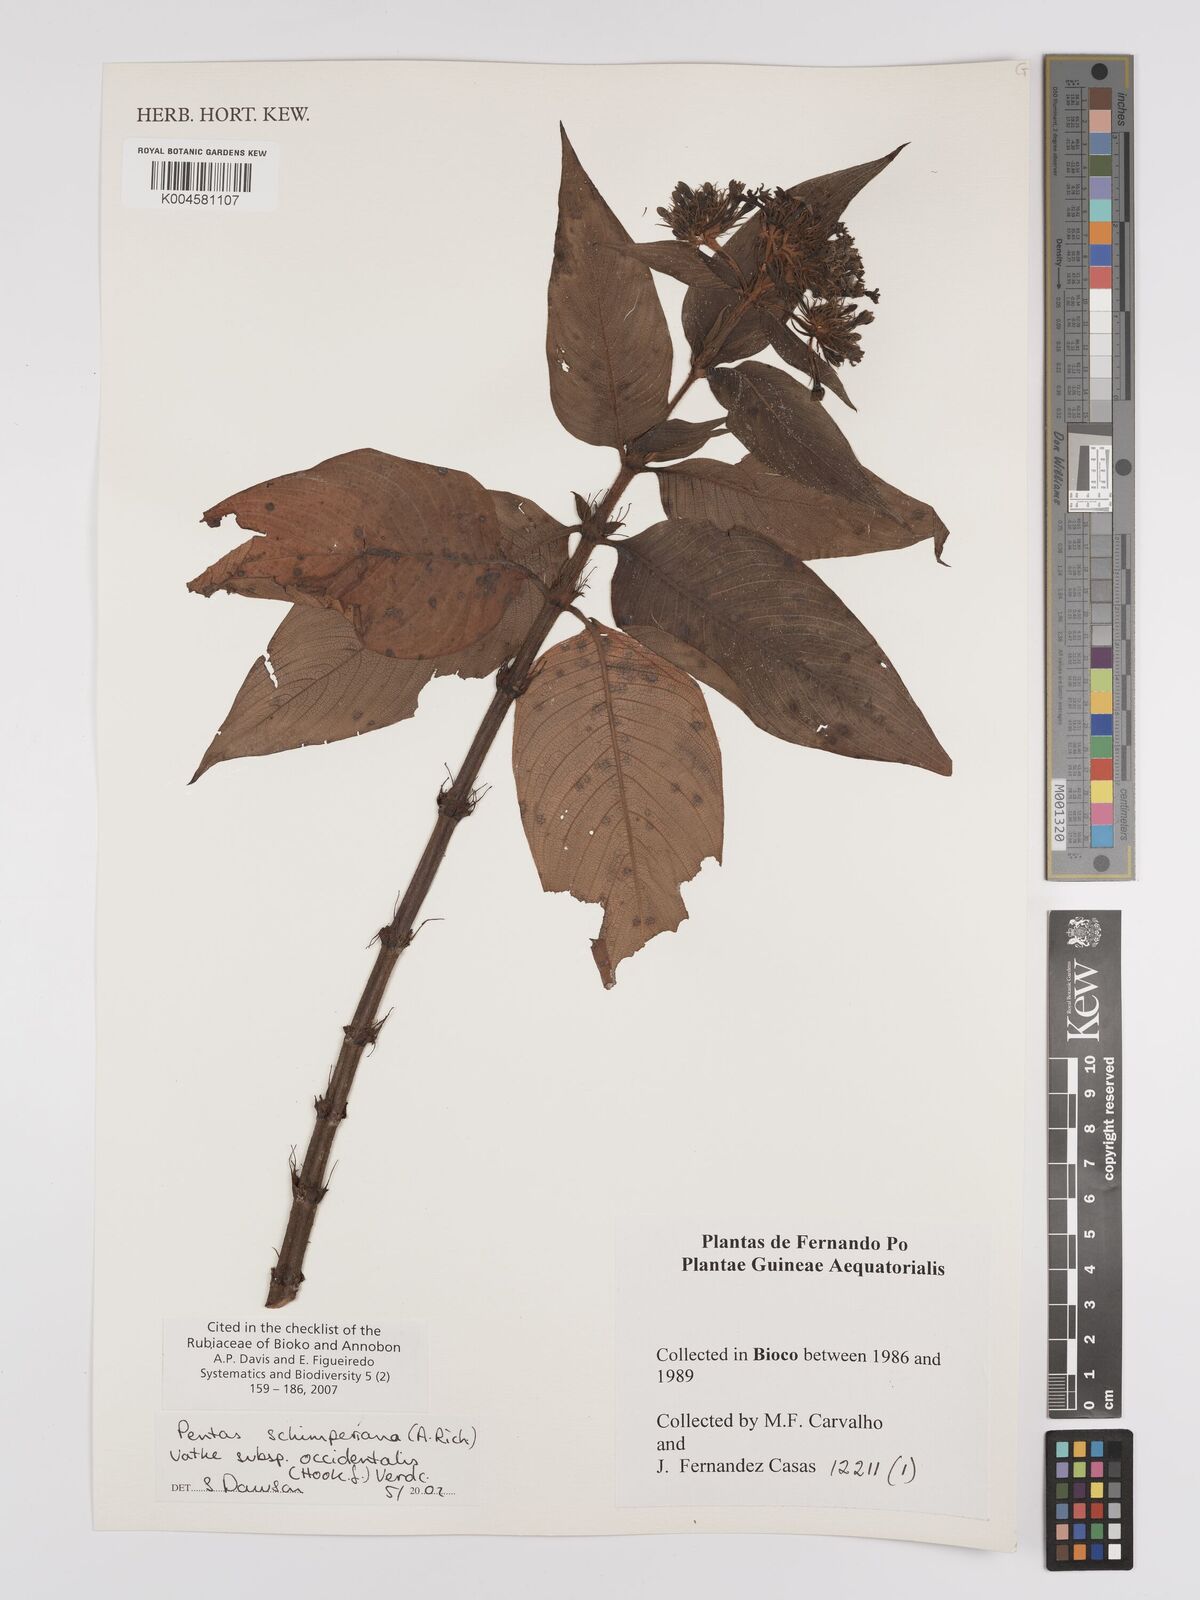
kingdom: Plantae
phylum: Tracheophyta
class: Magnoliopsida
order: Gentianales
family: Rubiaceae
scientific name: Rubiaceae
